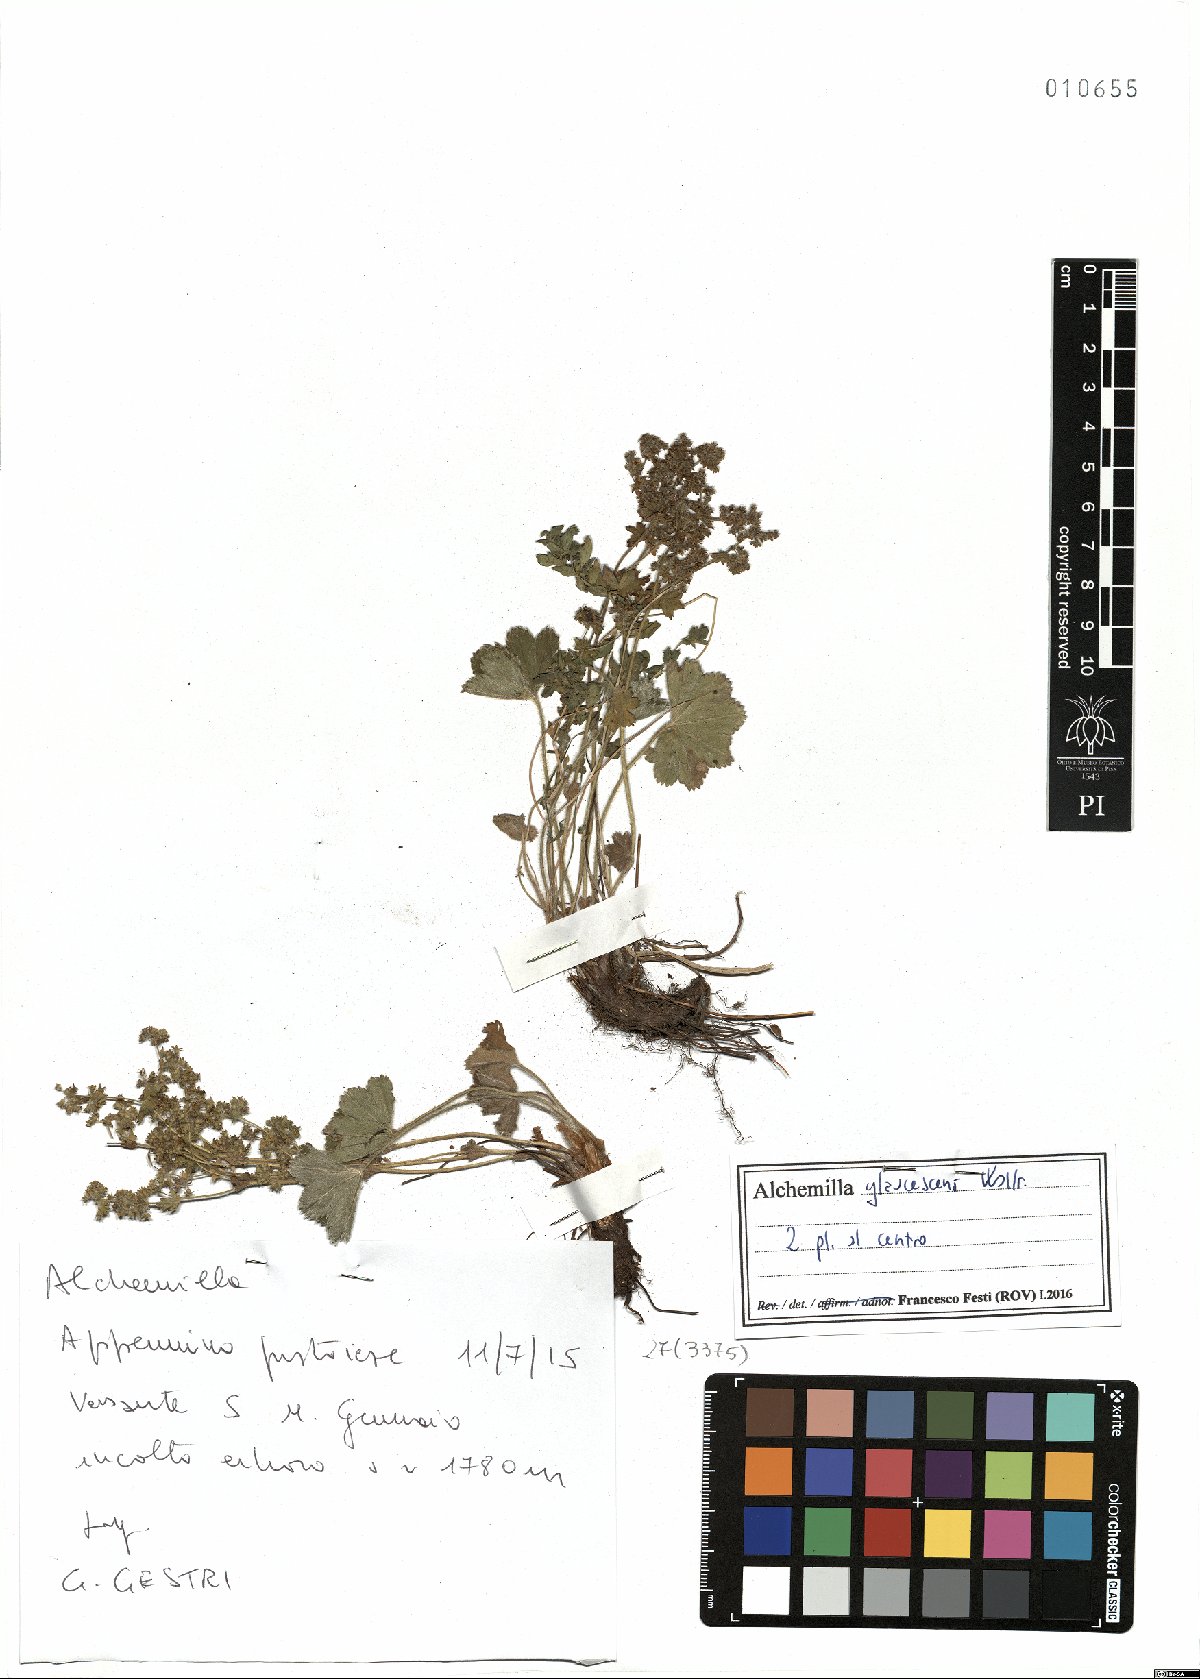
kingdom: Plantae
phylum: Tracheophyta
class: Magnoliopsida
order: Rosales
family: Rosaceae
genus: Alchemilla
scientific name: Alchemilla glaucescens
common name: Silky lady's mantle
